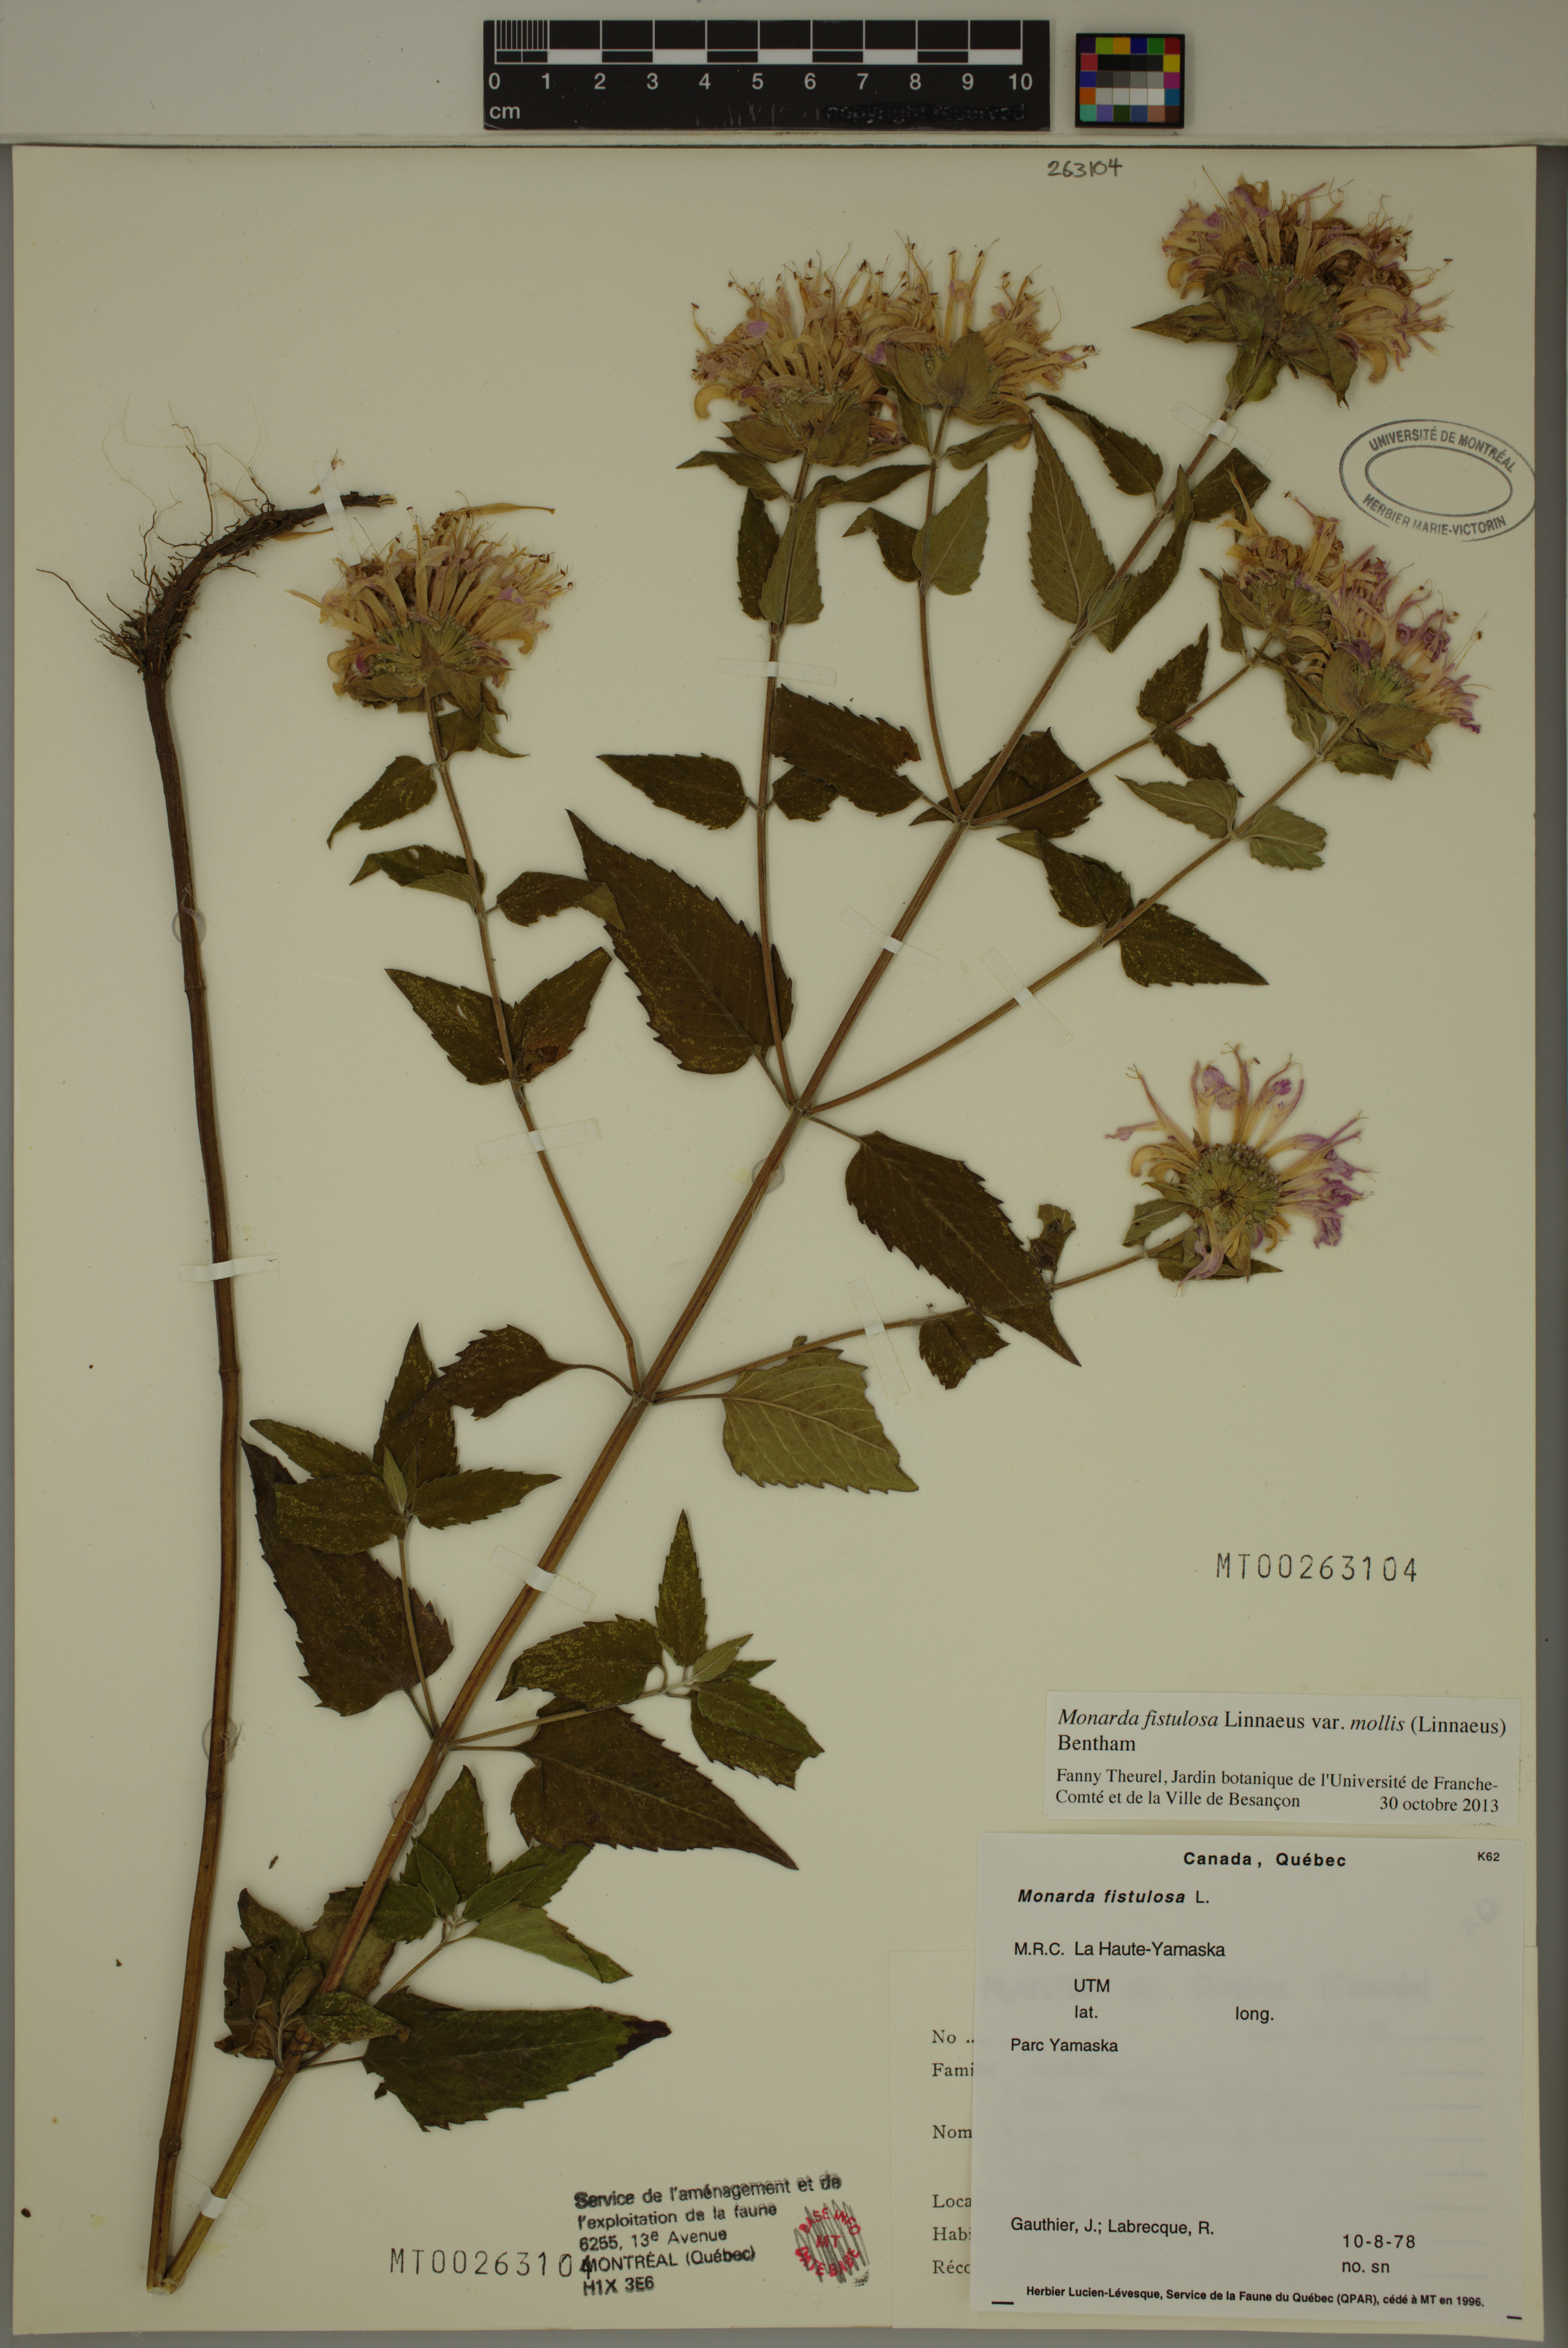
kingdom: Plantae
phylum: Tracheophyta
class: Magnoliopsida
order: Lamiales
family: Lamiaceae
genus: Monarda
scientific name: Monarda fistulosa
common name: Purple beebalm
